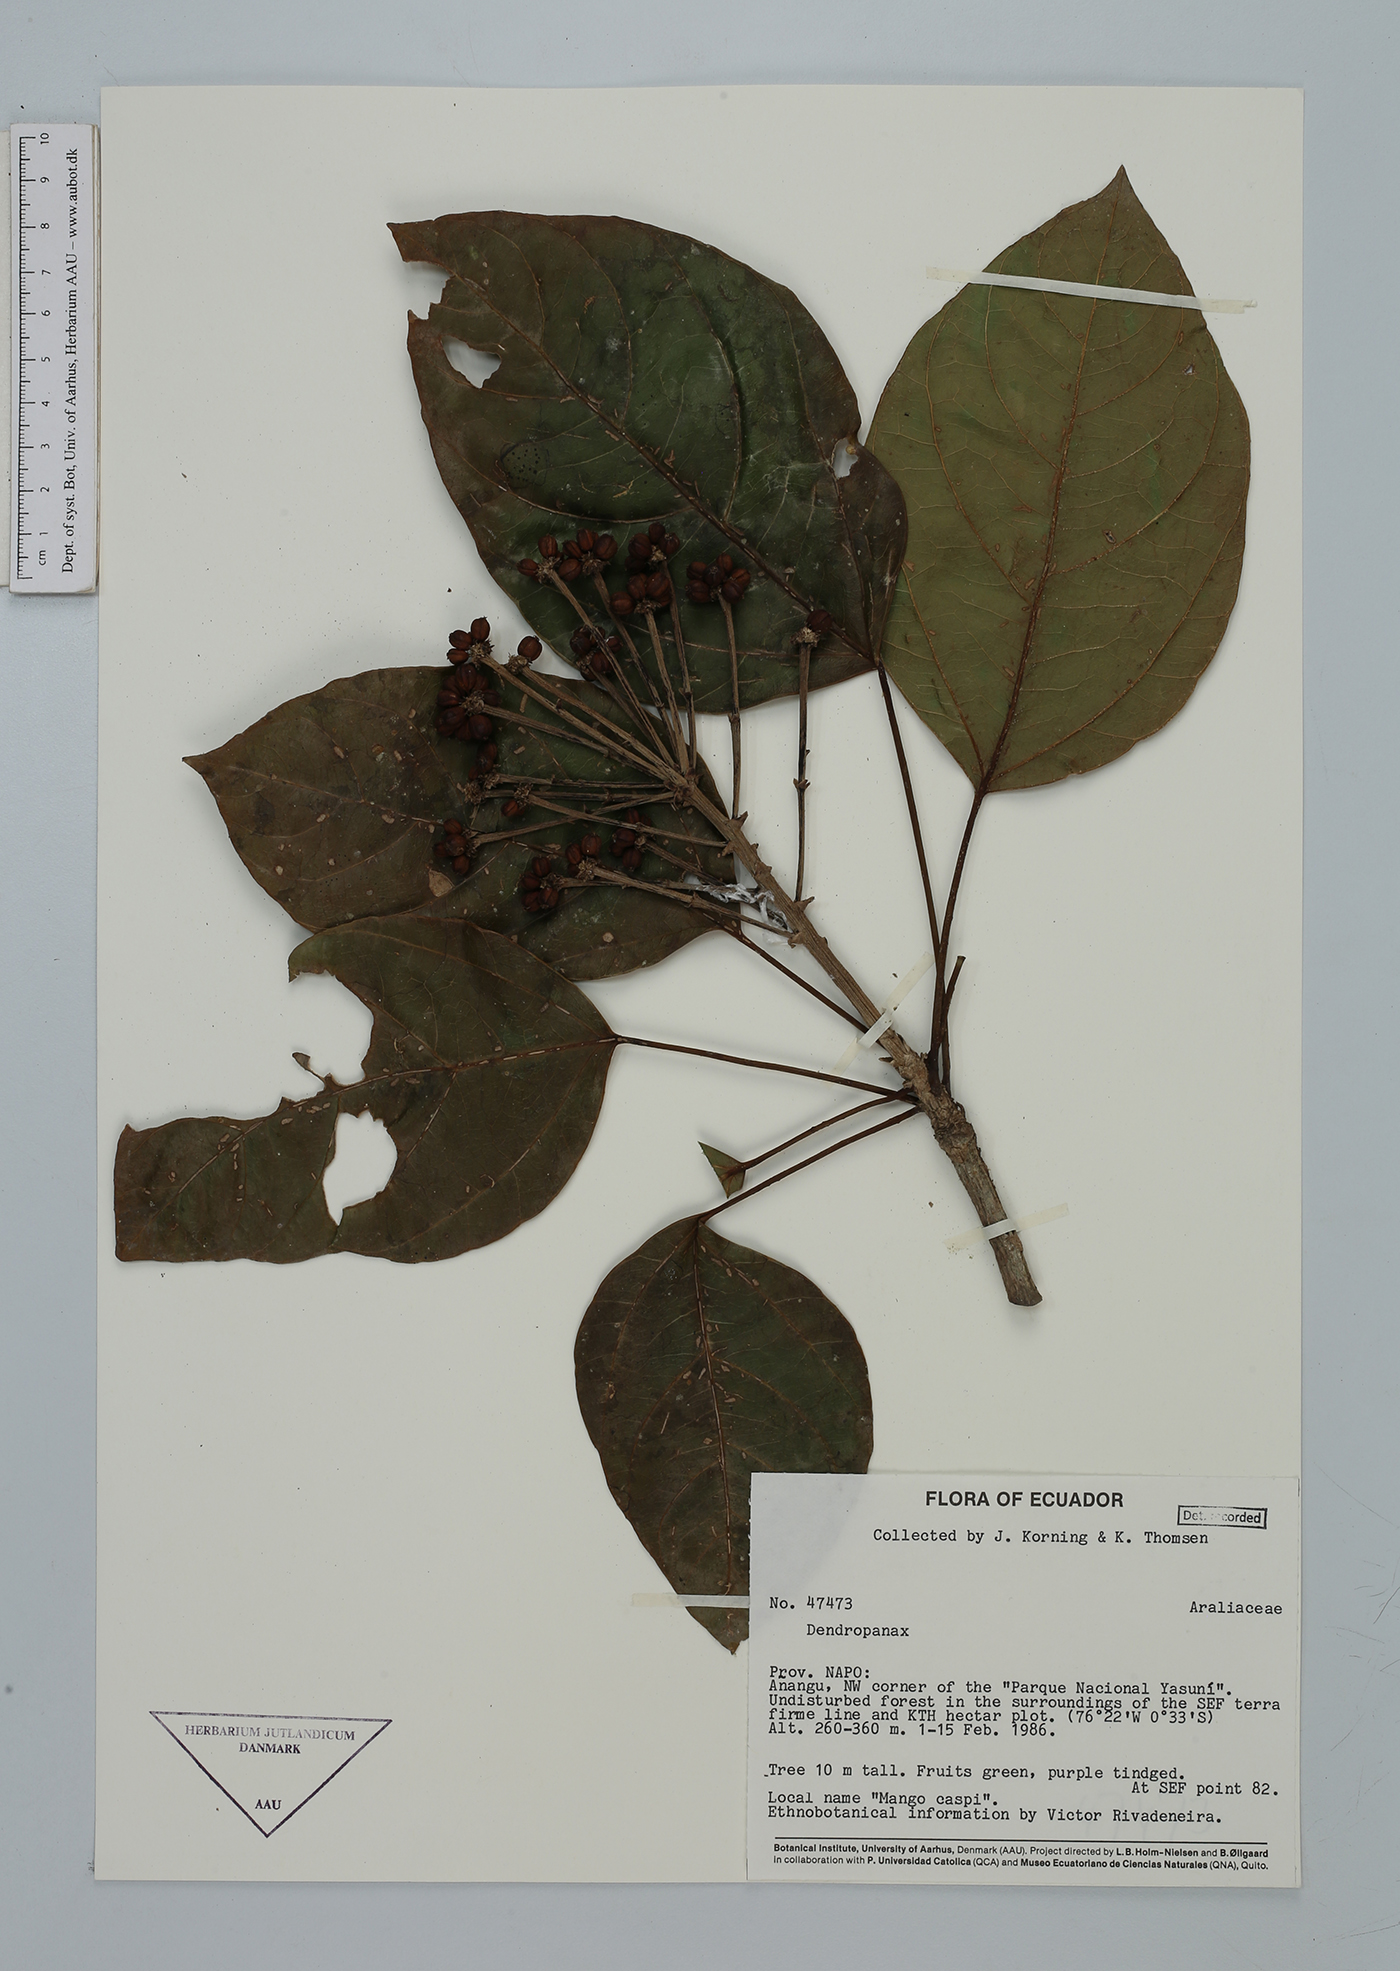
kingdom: Plantae
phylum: Tracheophyta
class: Magnoliopsida
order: Apiales
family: Araliaceae
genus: Dendropanax
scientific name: Dendropanax
